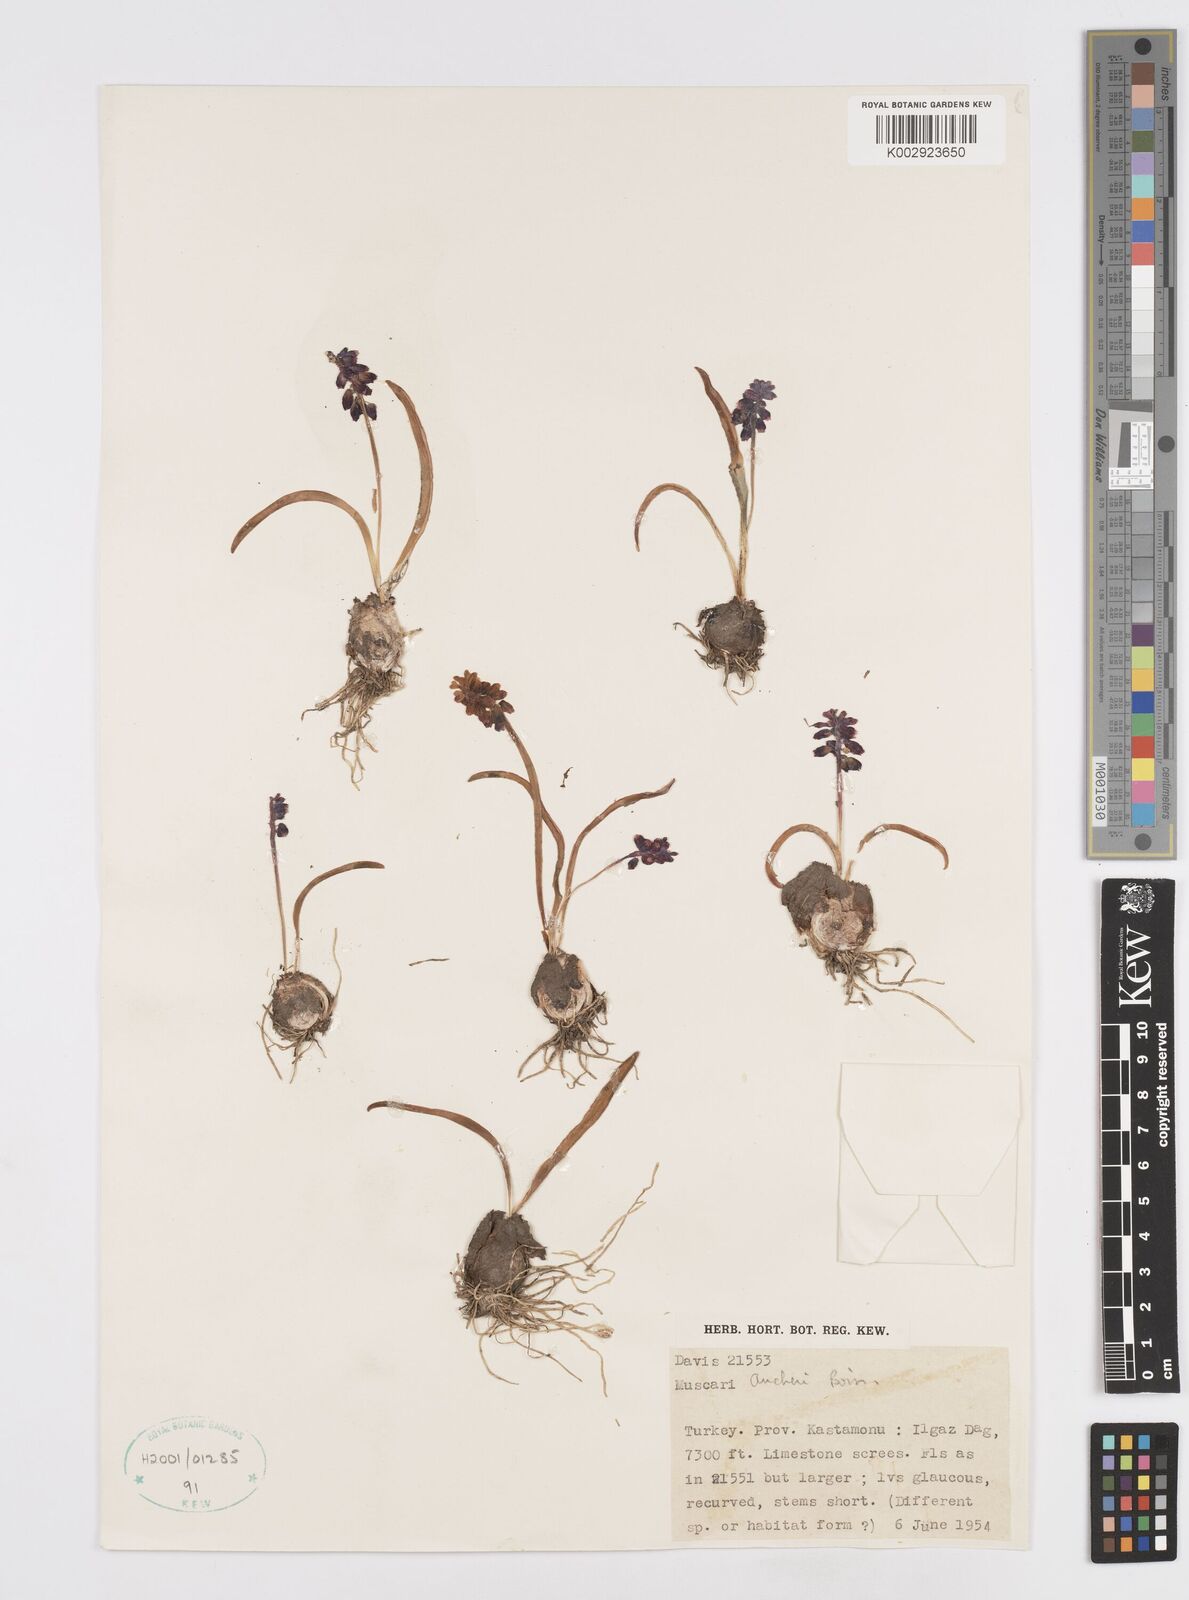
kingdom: Plantae
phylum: Tracheophyta
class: Liliopsida
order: Asparagales
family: Asparagaceae
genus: Muscari
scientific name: Muscari aucheri
